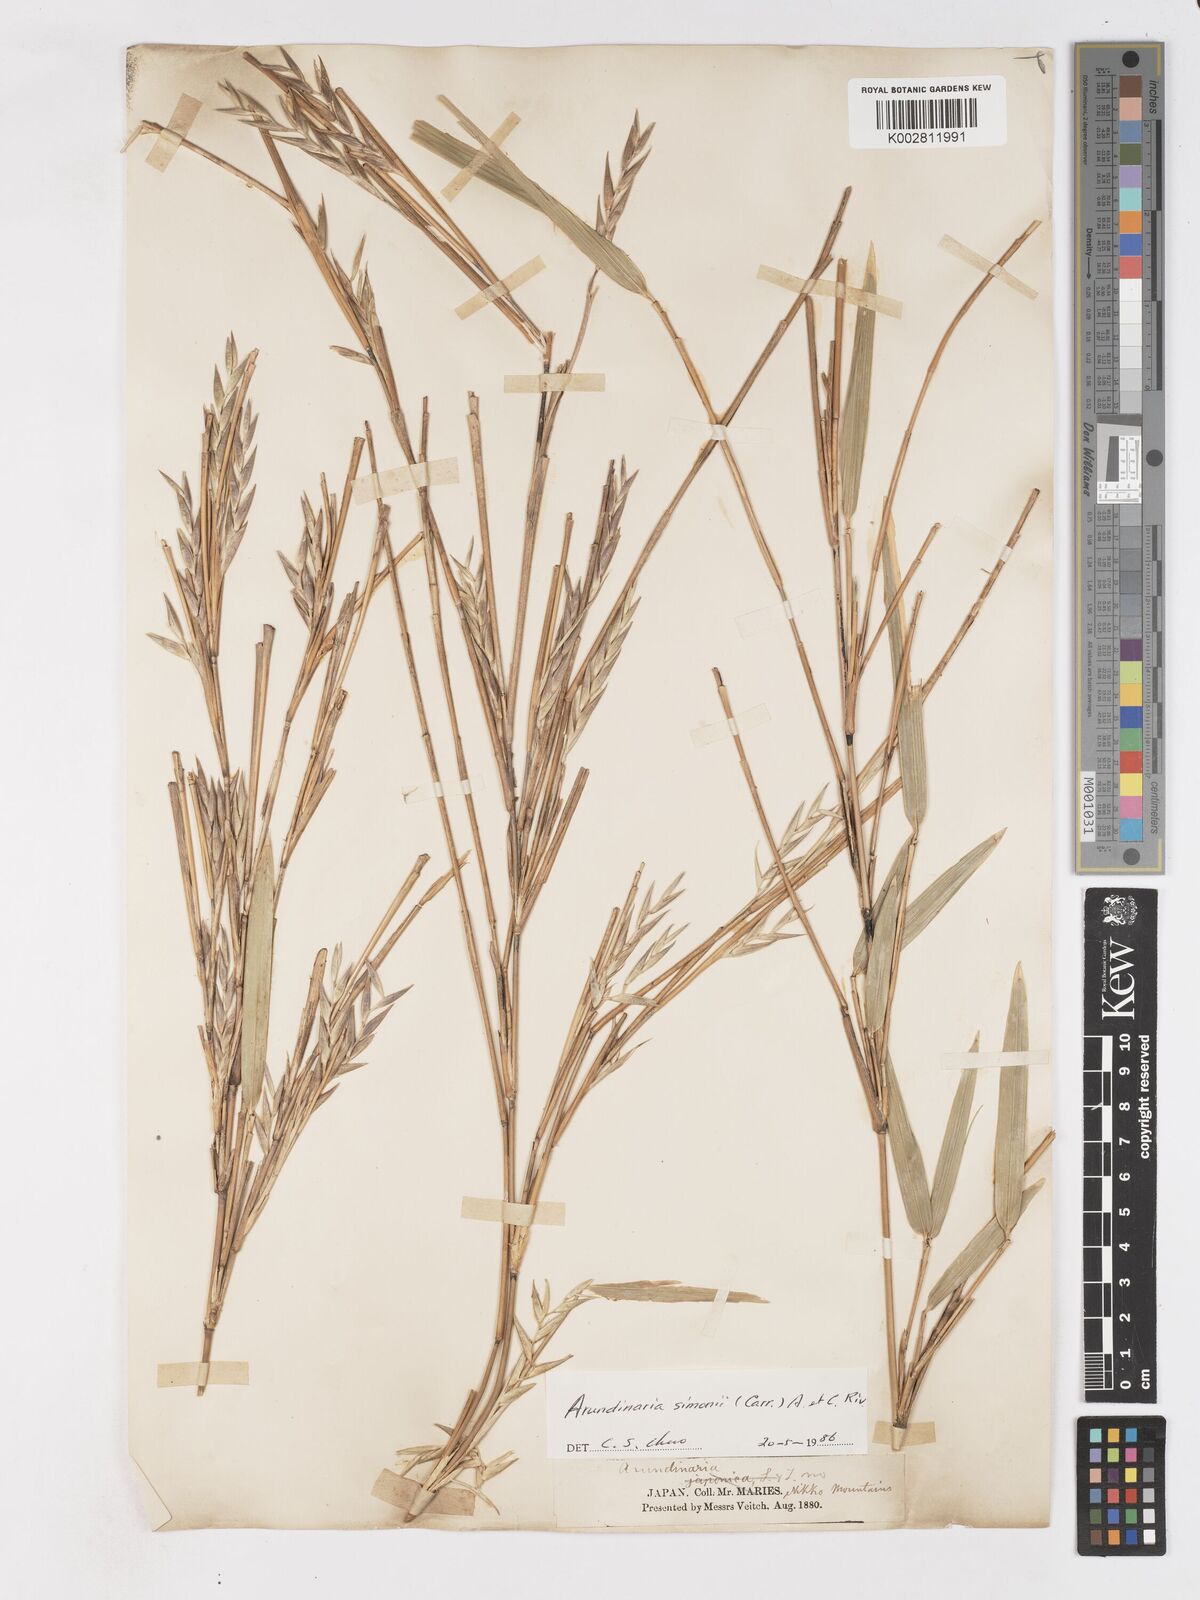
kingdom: Plantae
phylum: Tracheophyta
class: Liliopsida
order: Poales
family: Poaceae
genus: Pleioblastus
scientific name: Pleioblastus simonii
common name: Simon bamboo
